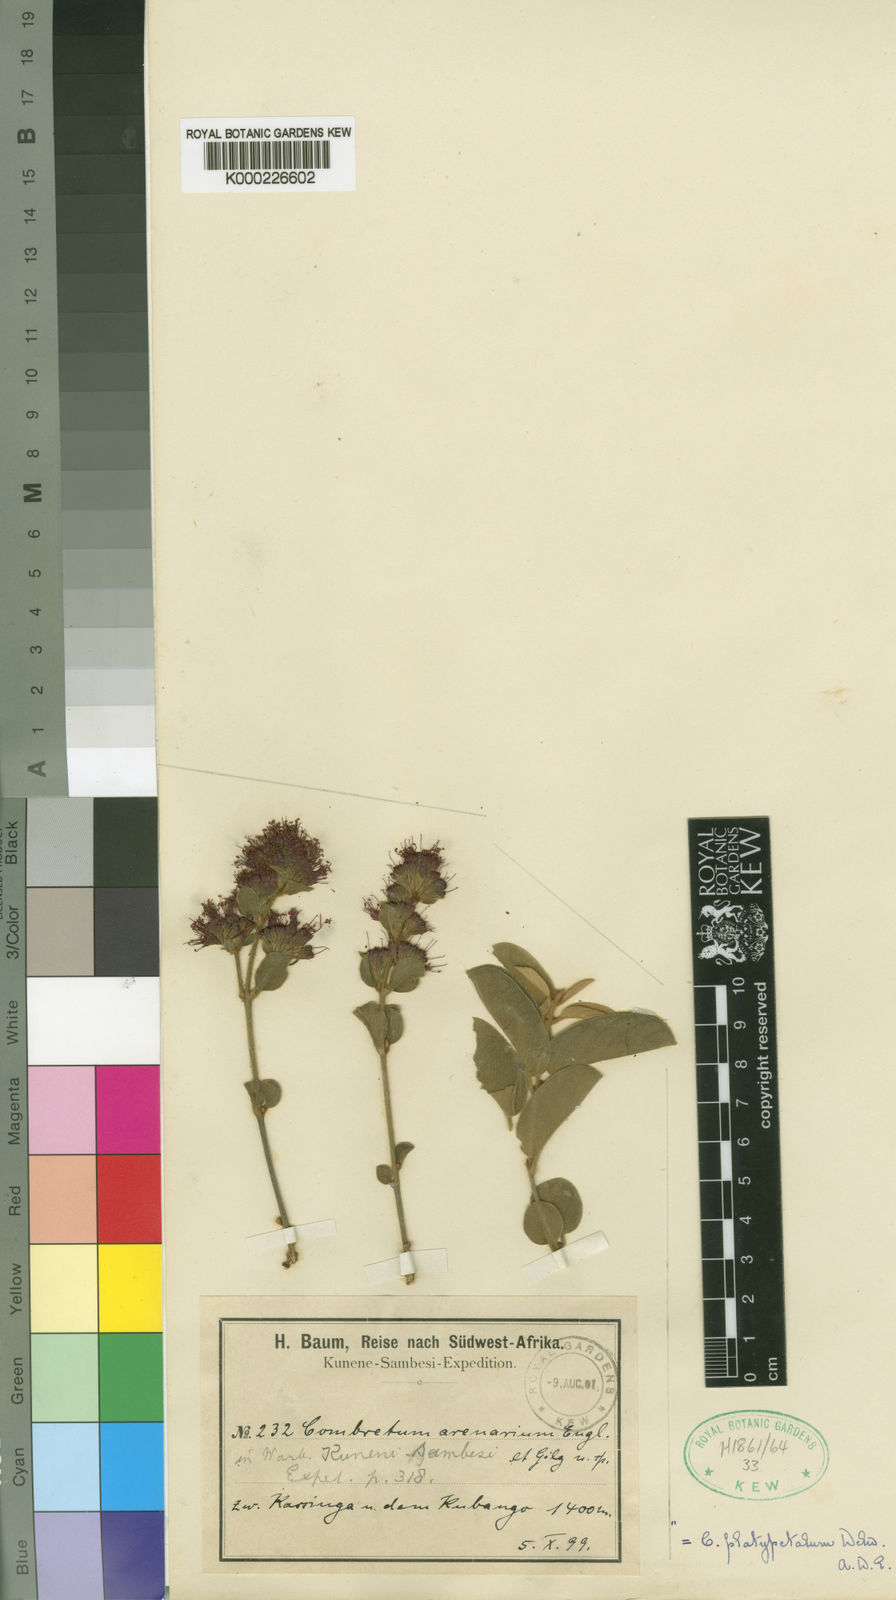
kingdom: Plantae
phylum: Tracheophyta
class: Magnoliopsida
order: Myrtales
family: Combretaceae
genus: Combretum
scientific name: Combretum baumii
